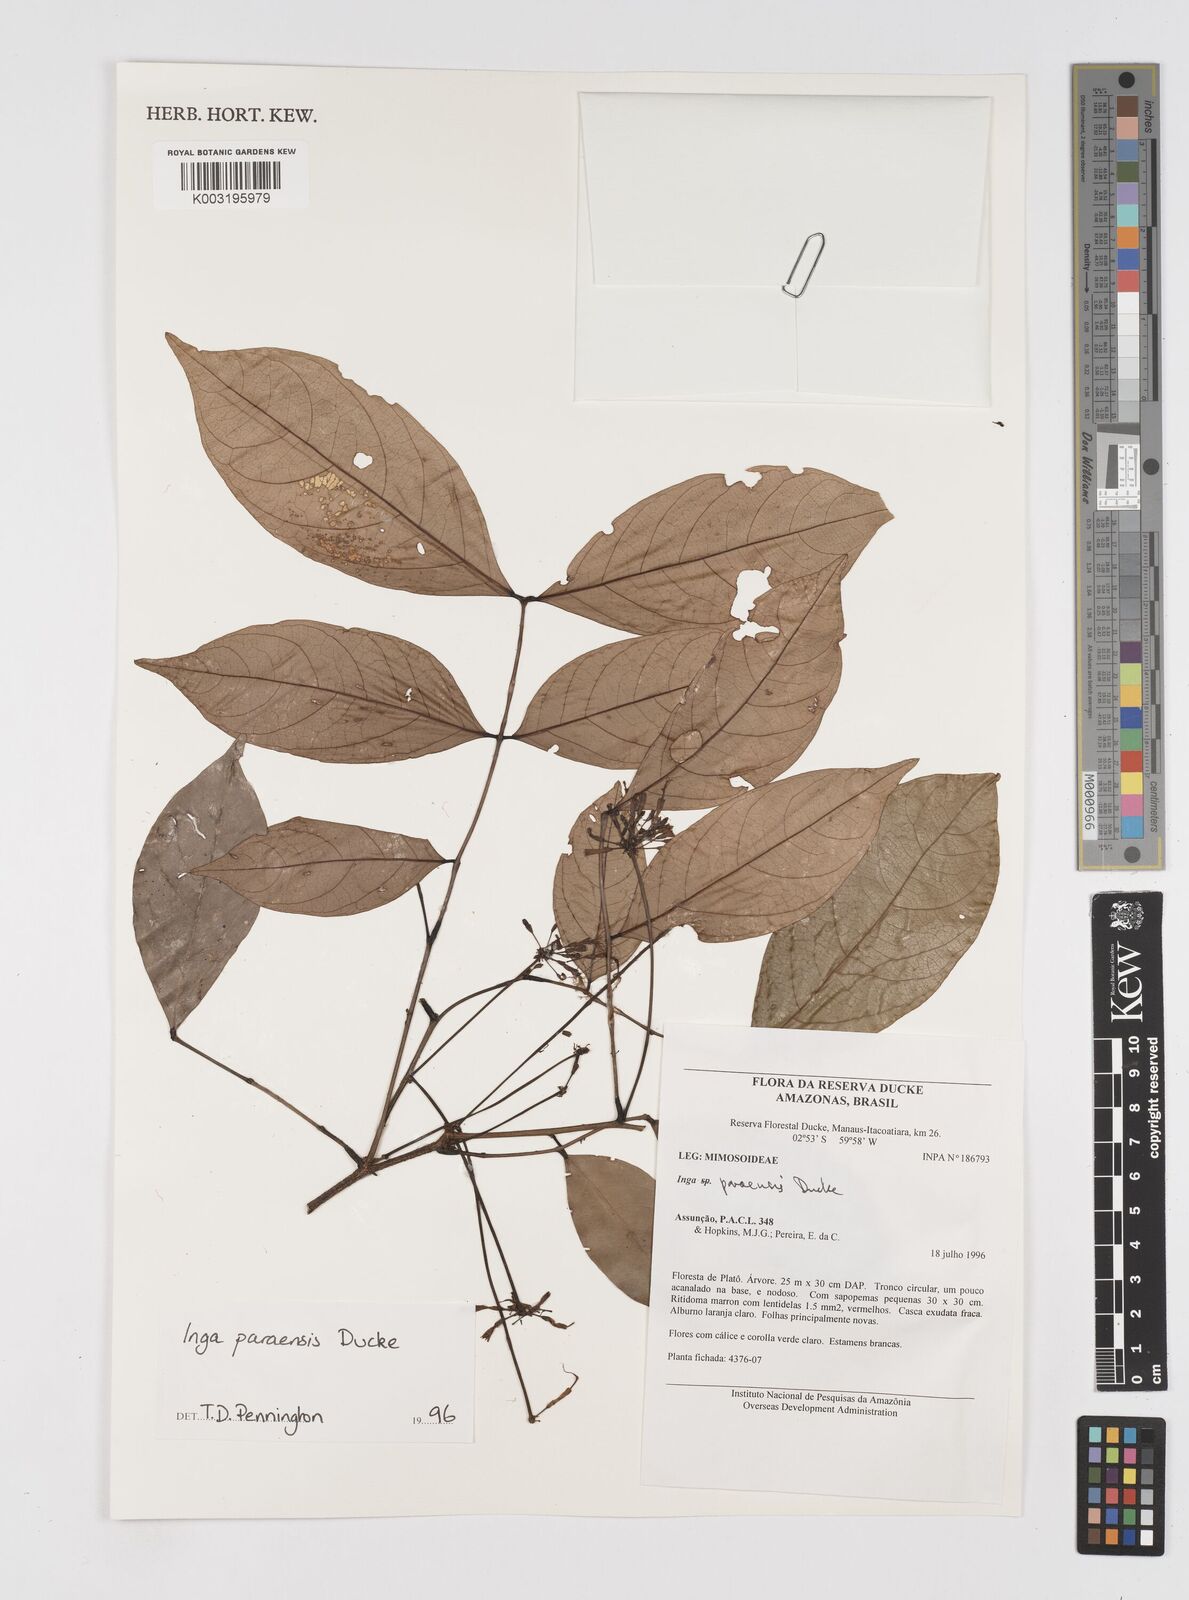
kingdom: Plantae
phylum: Tracheophyta
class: Magnoliopsida
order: Fabales
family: Fabaceae
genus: Inga
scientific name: Inga paraensis
